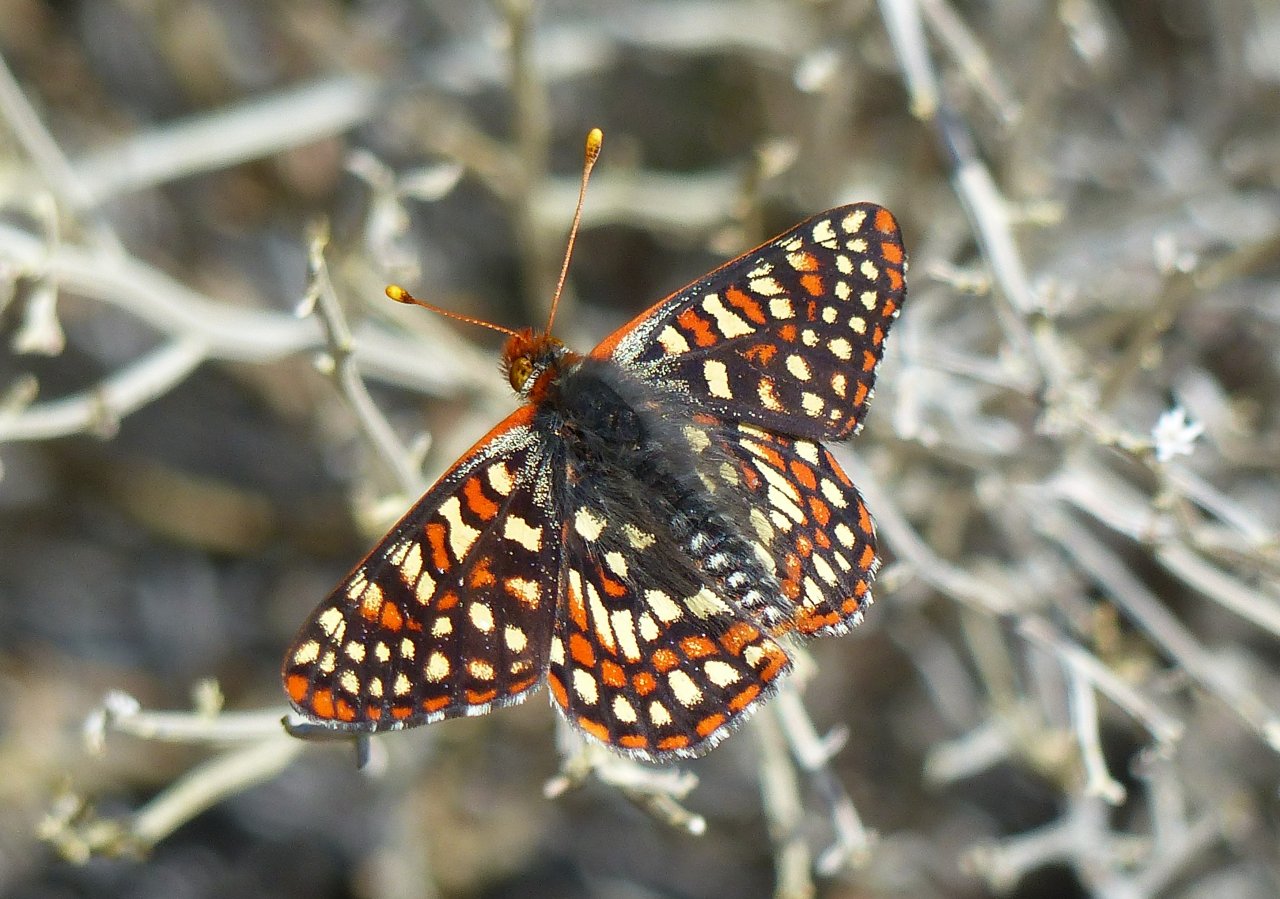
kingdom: Animalia
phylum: Arthropoda
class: Insecta
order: Lepidoptera
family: Nymphalidae
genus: Occidryas
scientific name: Occidryas chalcedona
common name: Chalcedon Checkerspot
